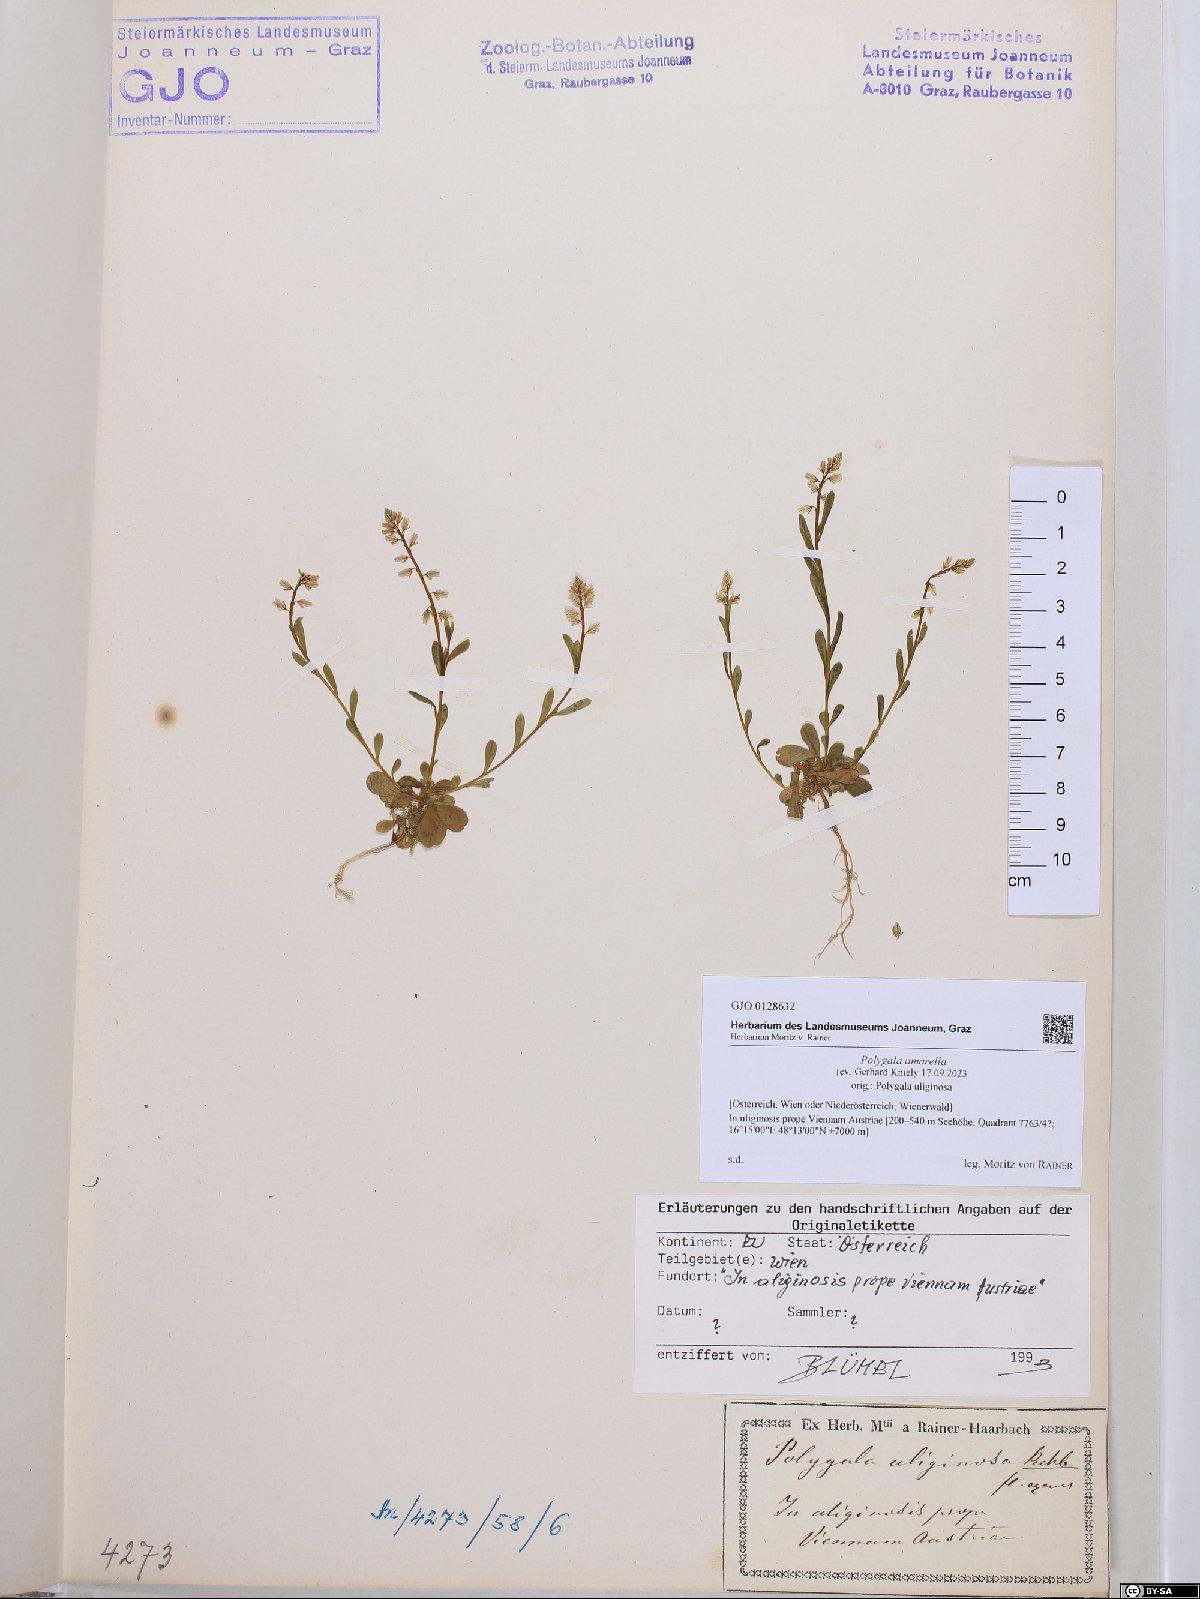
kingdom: Plantae
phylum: Tracheophyta
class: Magnoliopsida
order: Fabales
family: Polygalaceae
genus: Polygala
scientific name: Polygala amarella
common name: Dwarf milkwort
